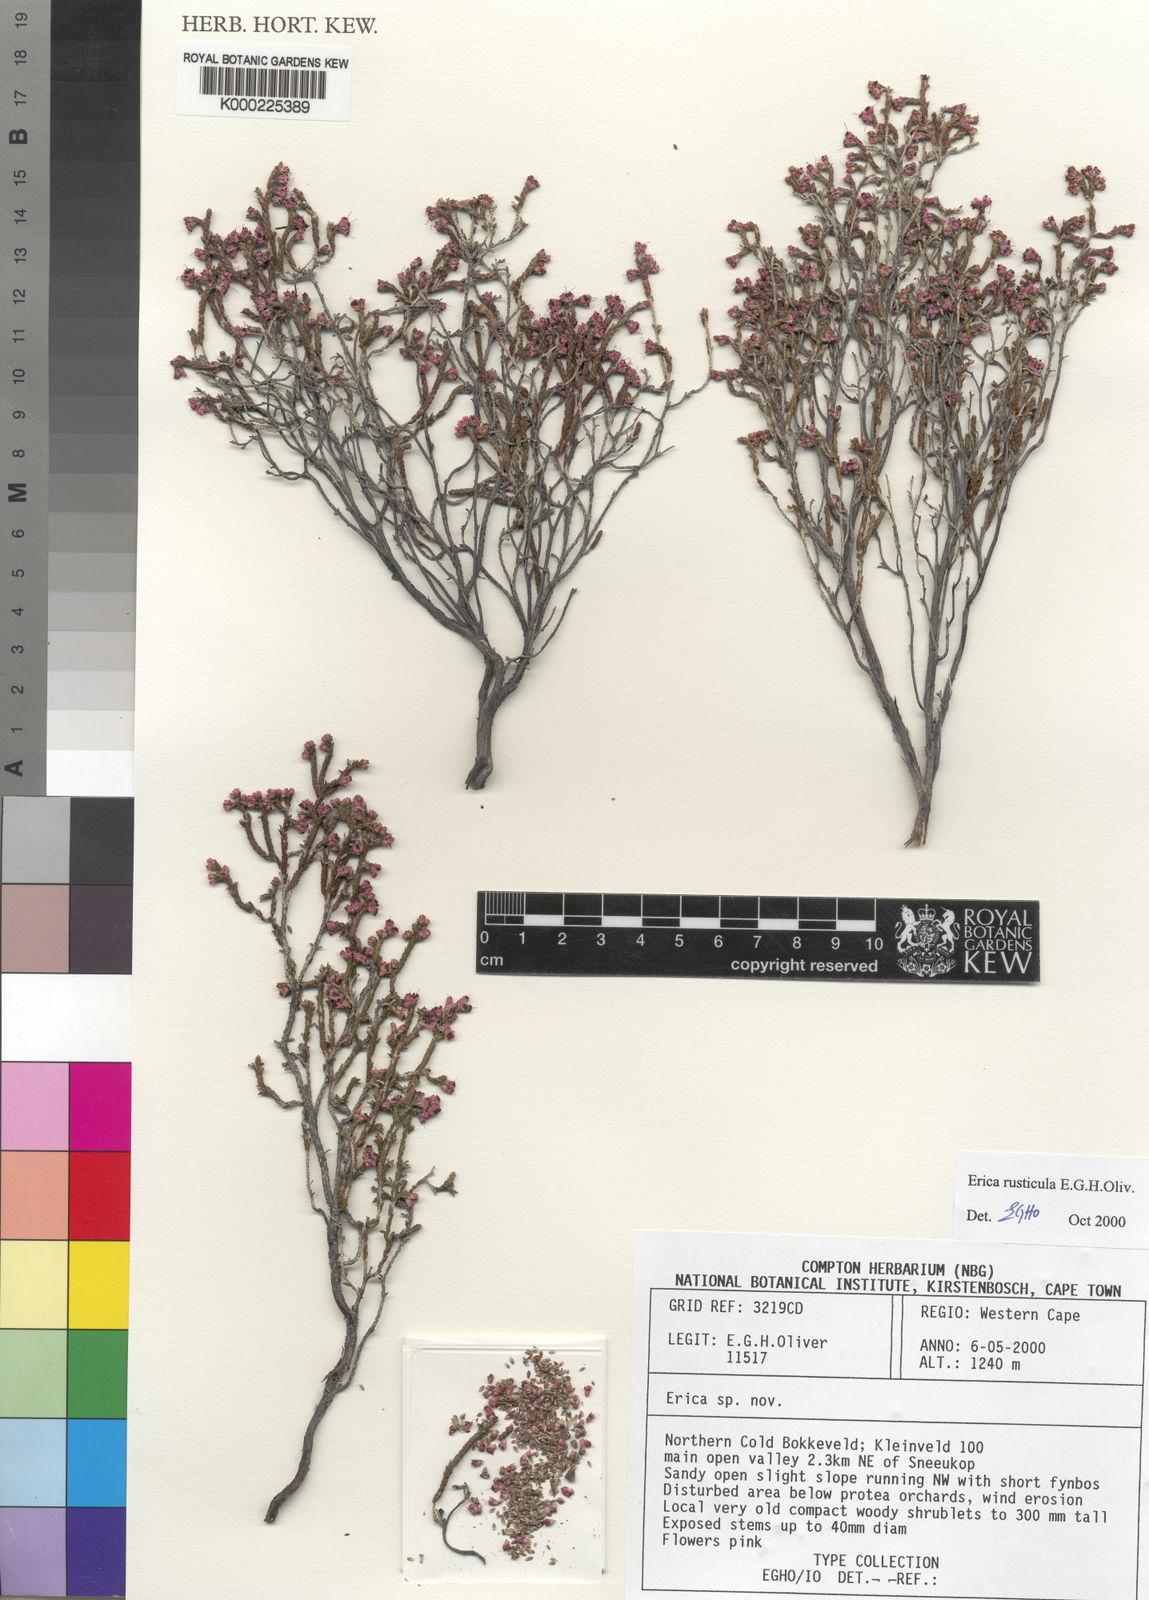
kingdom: Plantae
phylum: Tracheophyta
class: Magnoliopsida
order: Ericales
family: Ericaceae
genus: Erica
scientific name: Erica rusticula
